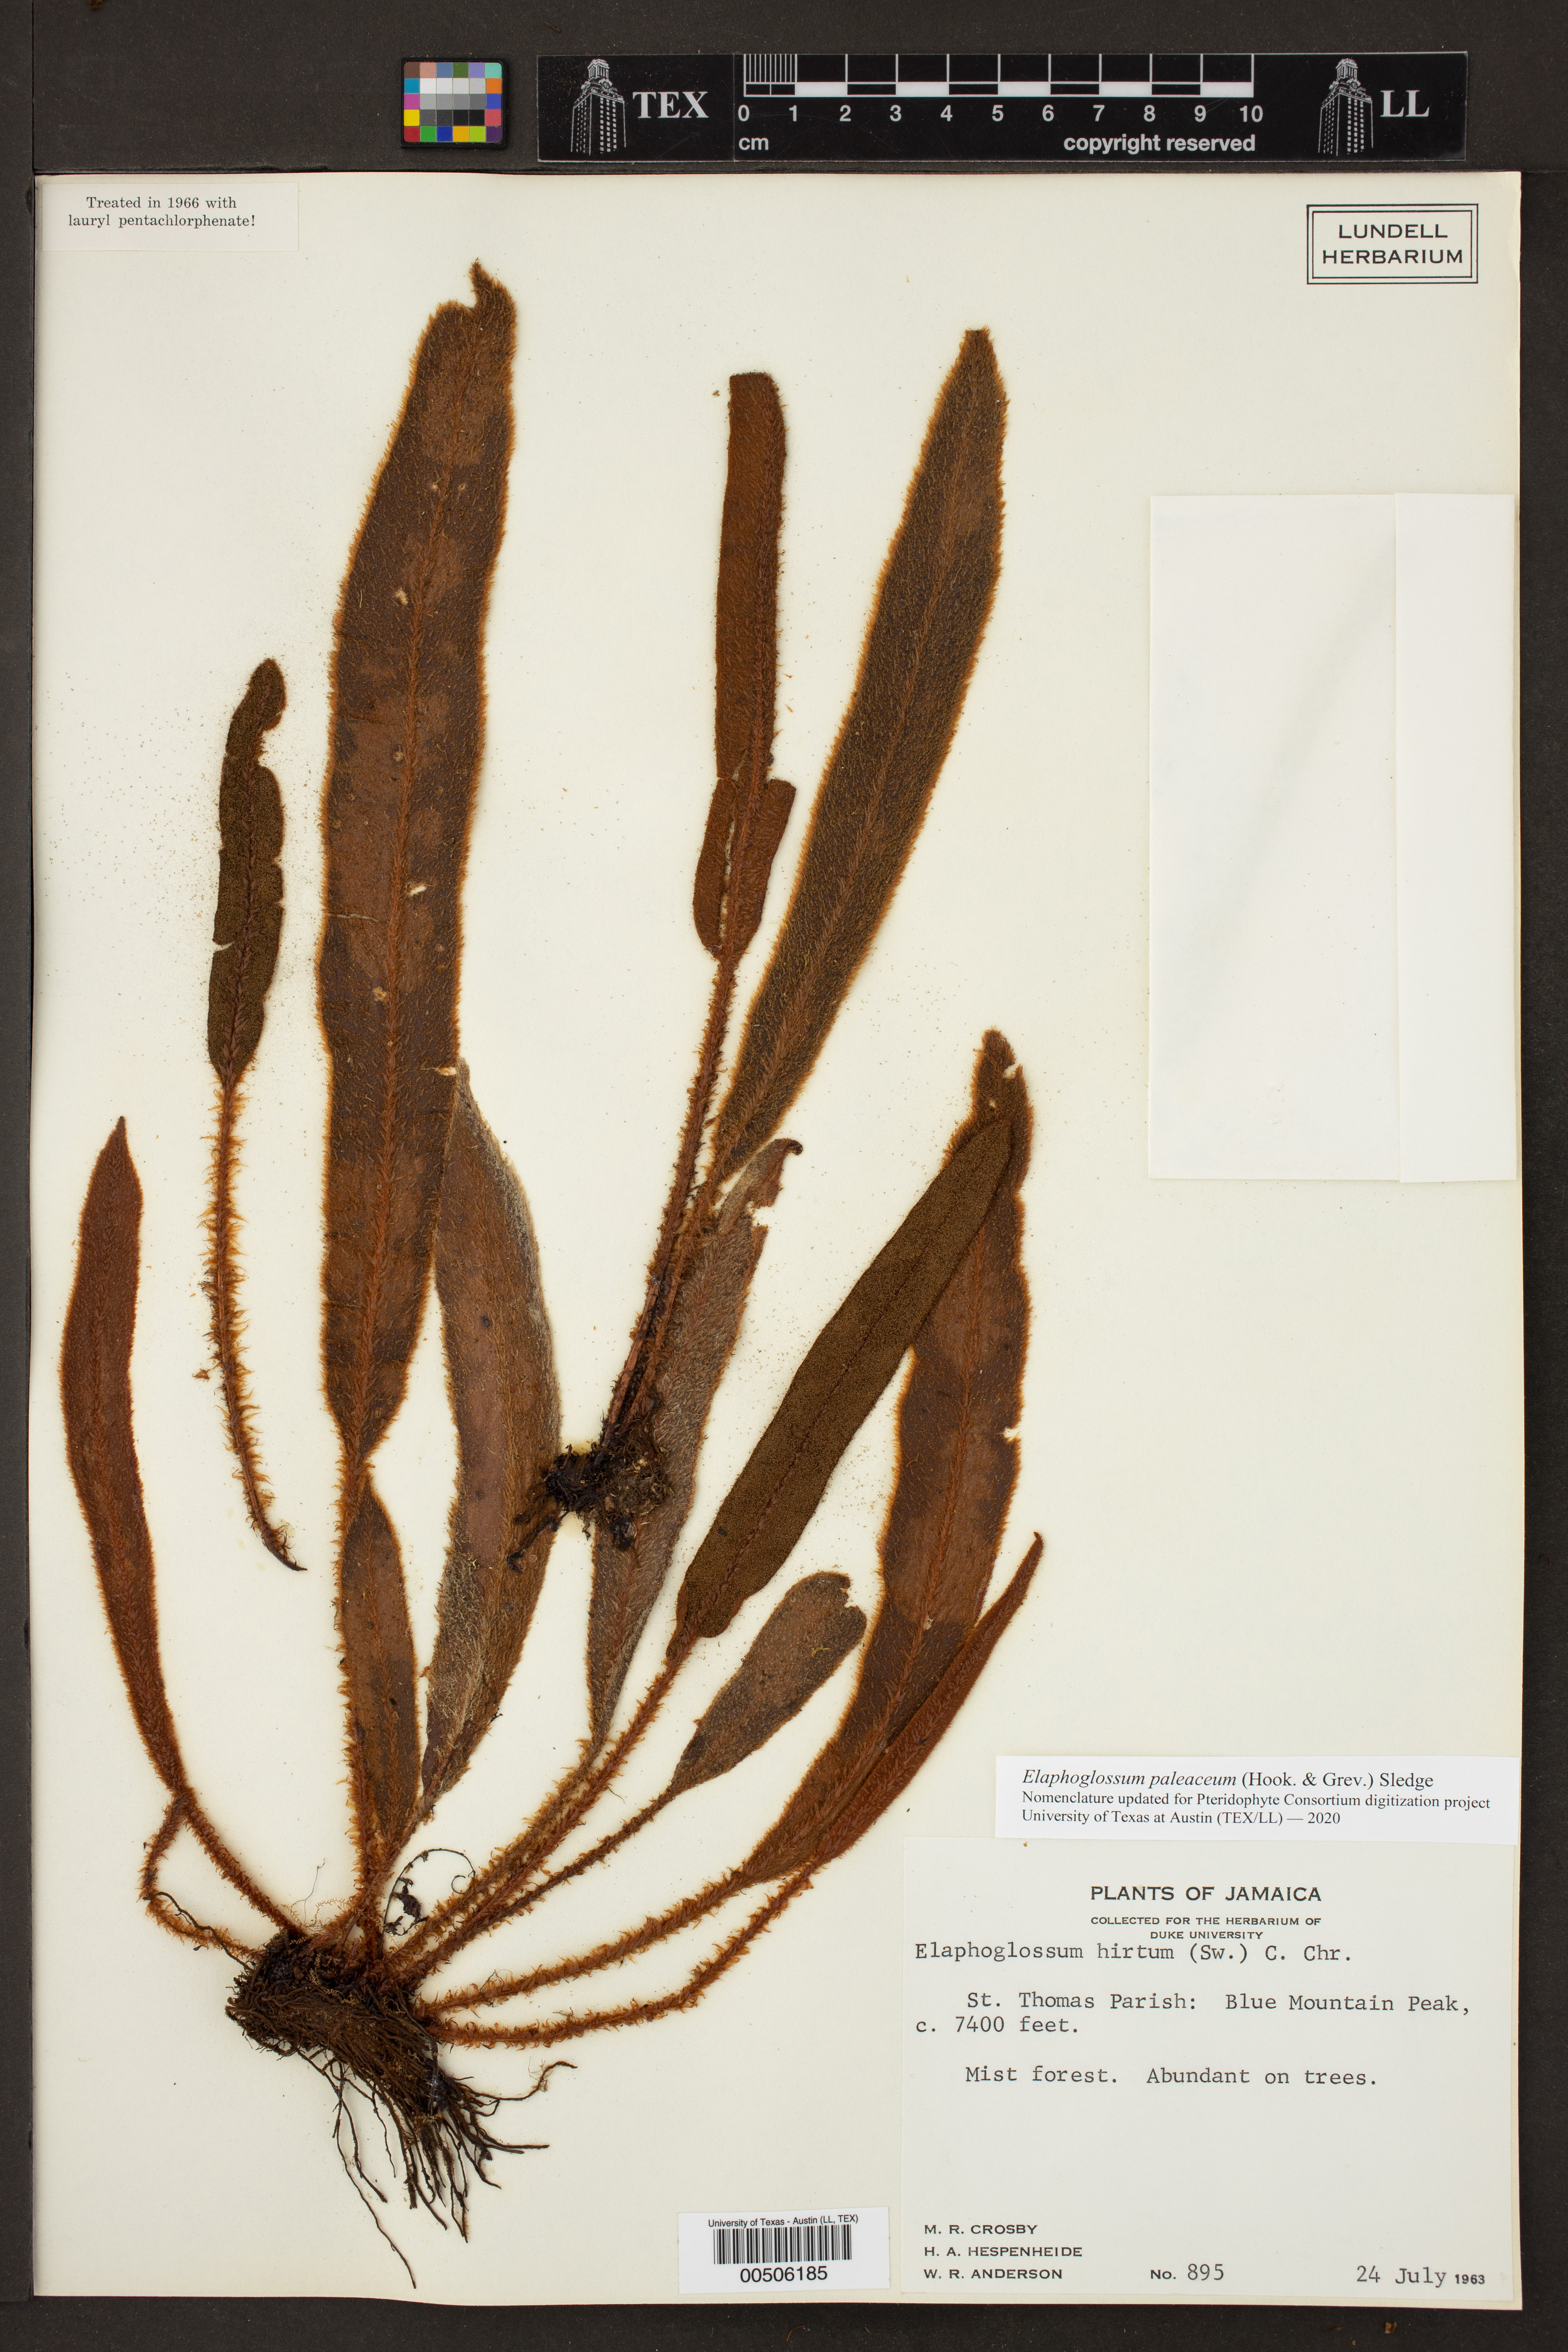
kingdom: Plantae
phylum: Tracheophyta
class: Polypodiopsida
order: Polypodiales
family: Dryopteridaceae
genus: Elaphoglossum
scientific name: Elaphoglossum paleaceum
